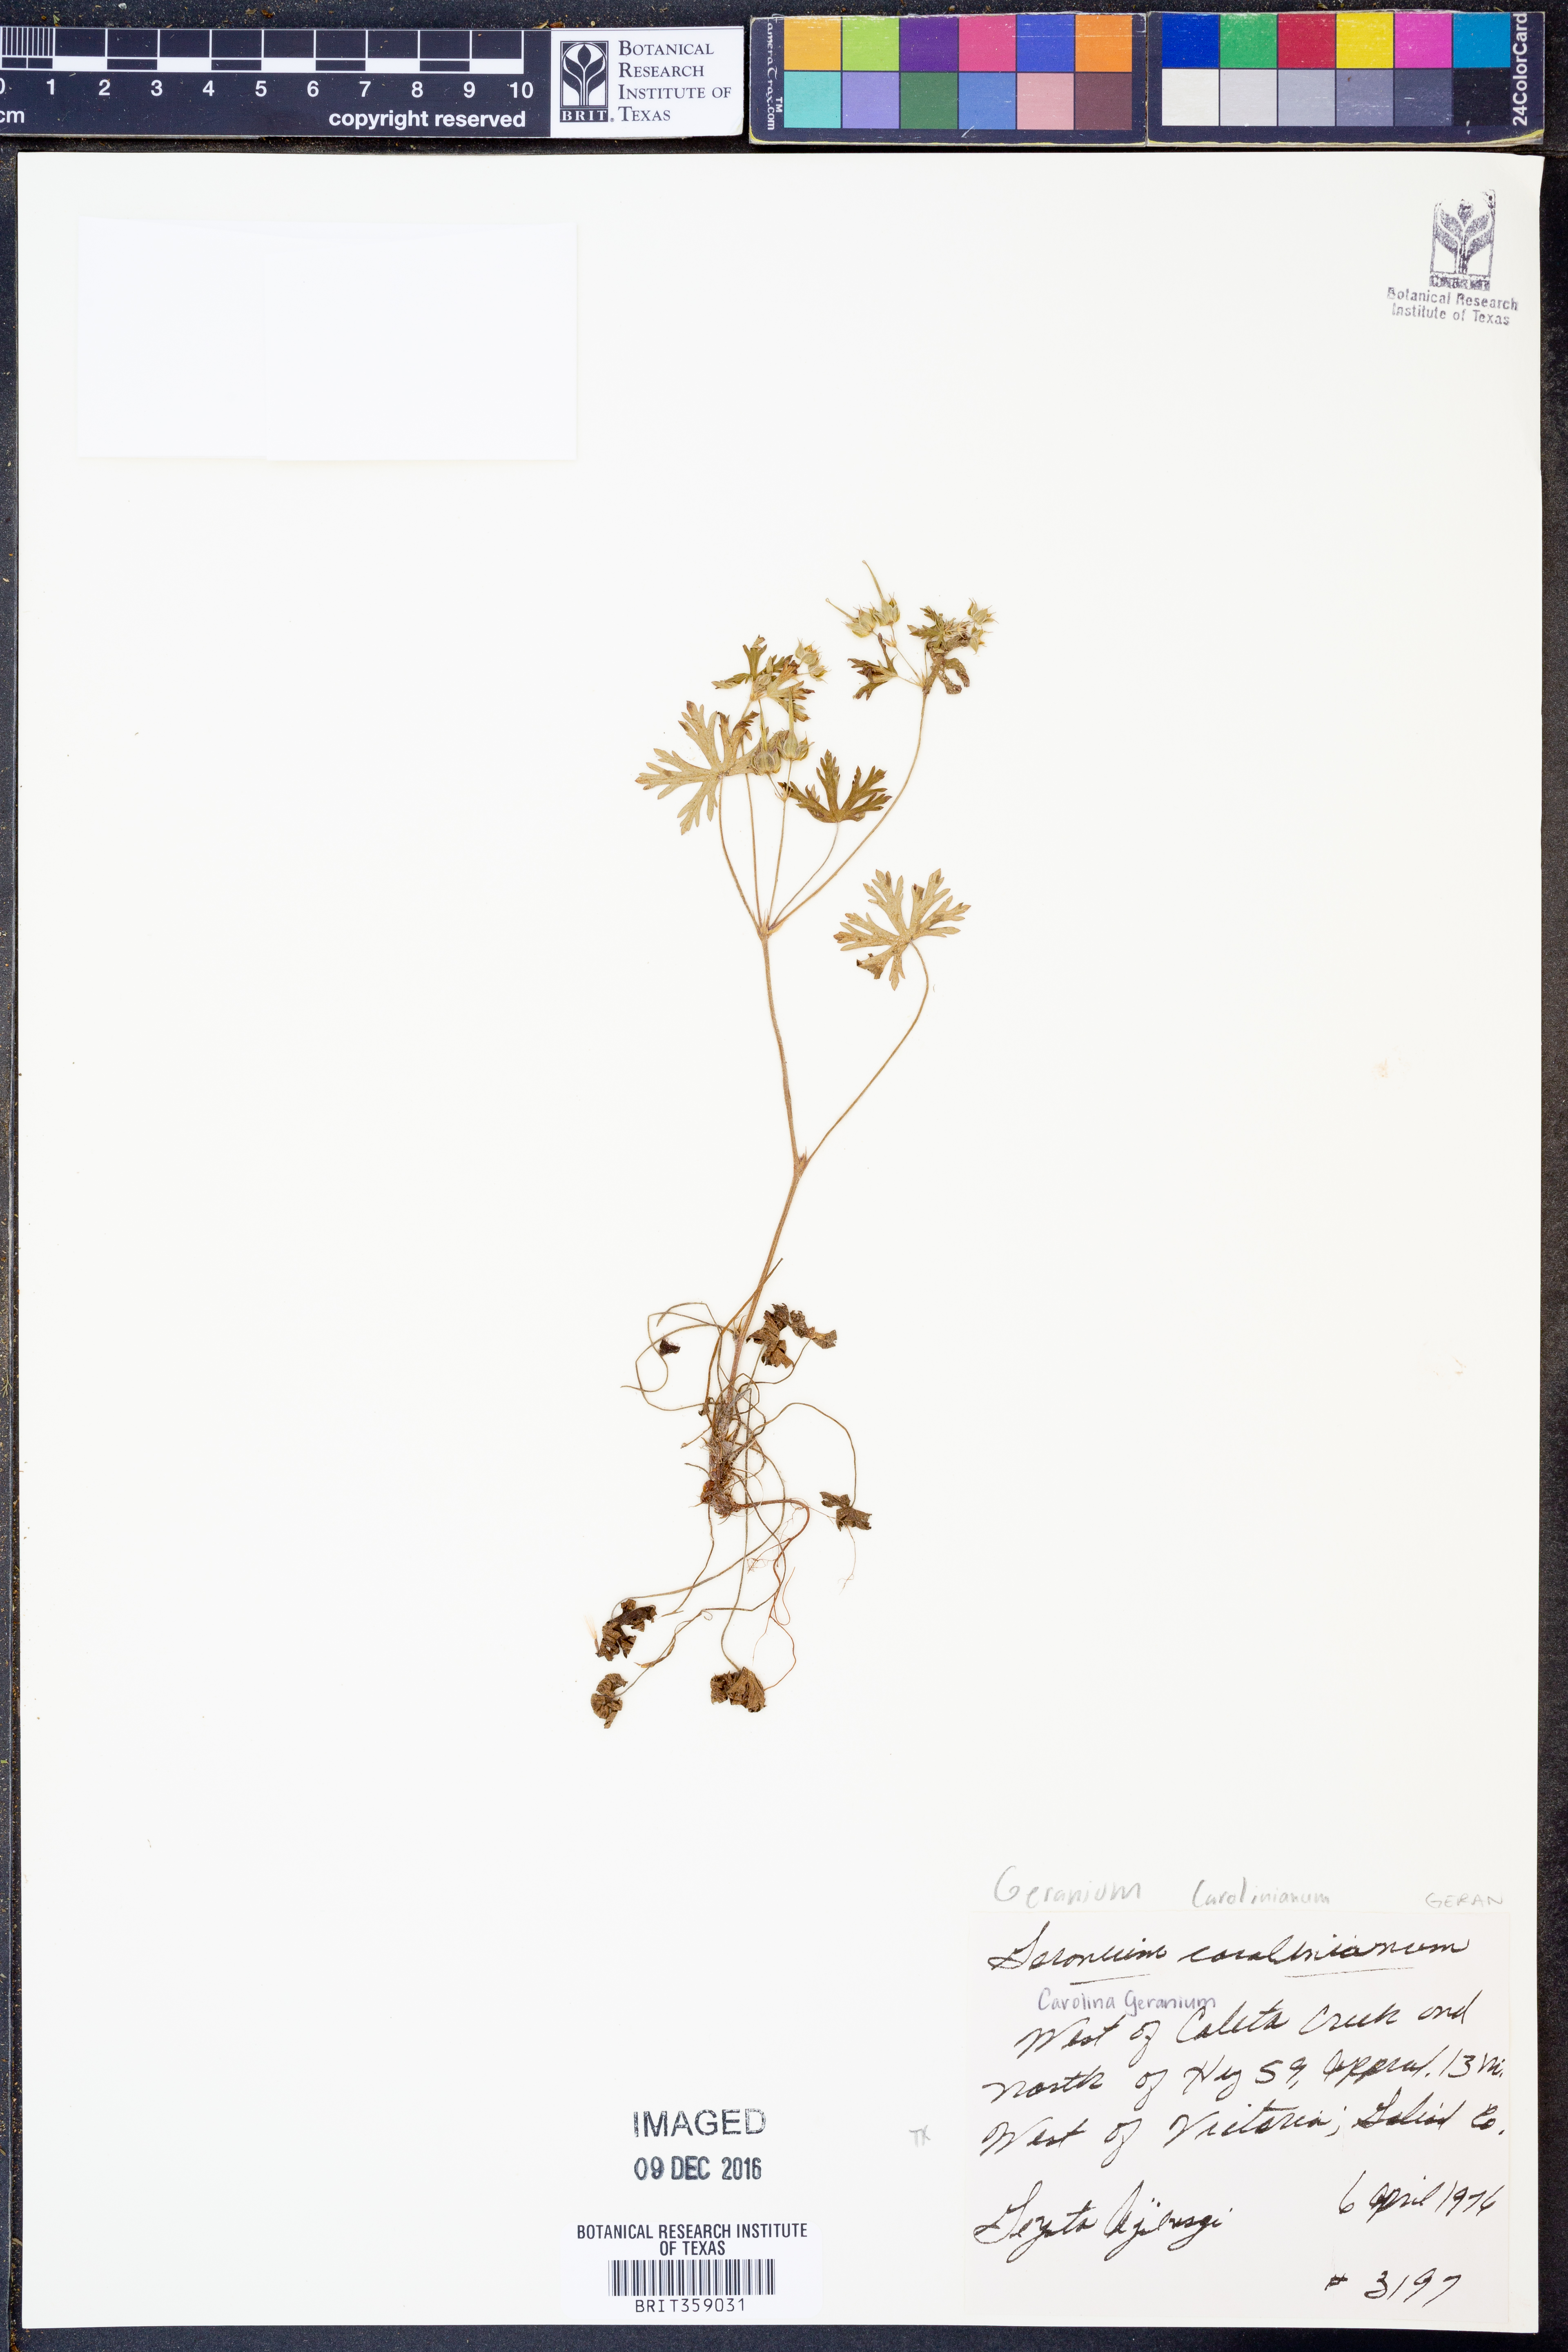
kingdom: Plantae
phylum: Tracheophyta
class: Magnoliopsida
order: Geraniales
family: Geraniaceae
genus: Geranium
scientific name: Geranium carolinianum
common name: Carolina crane's-bill
